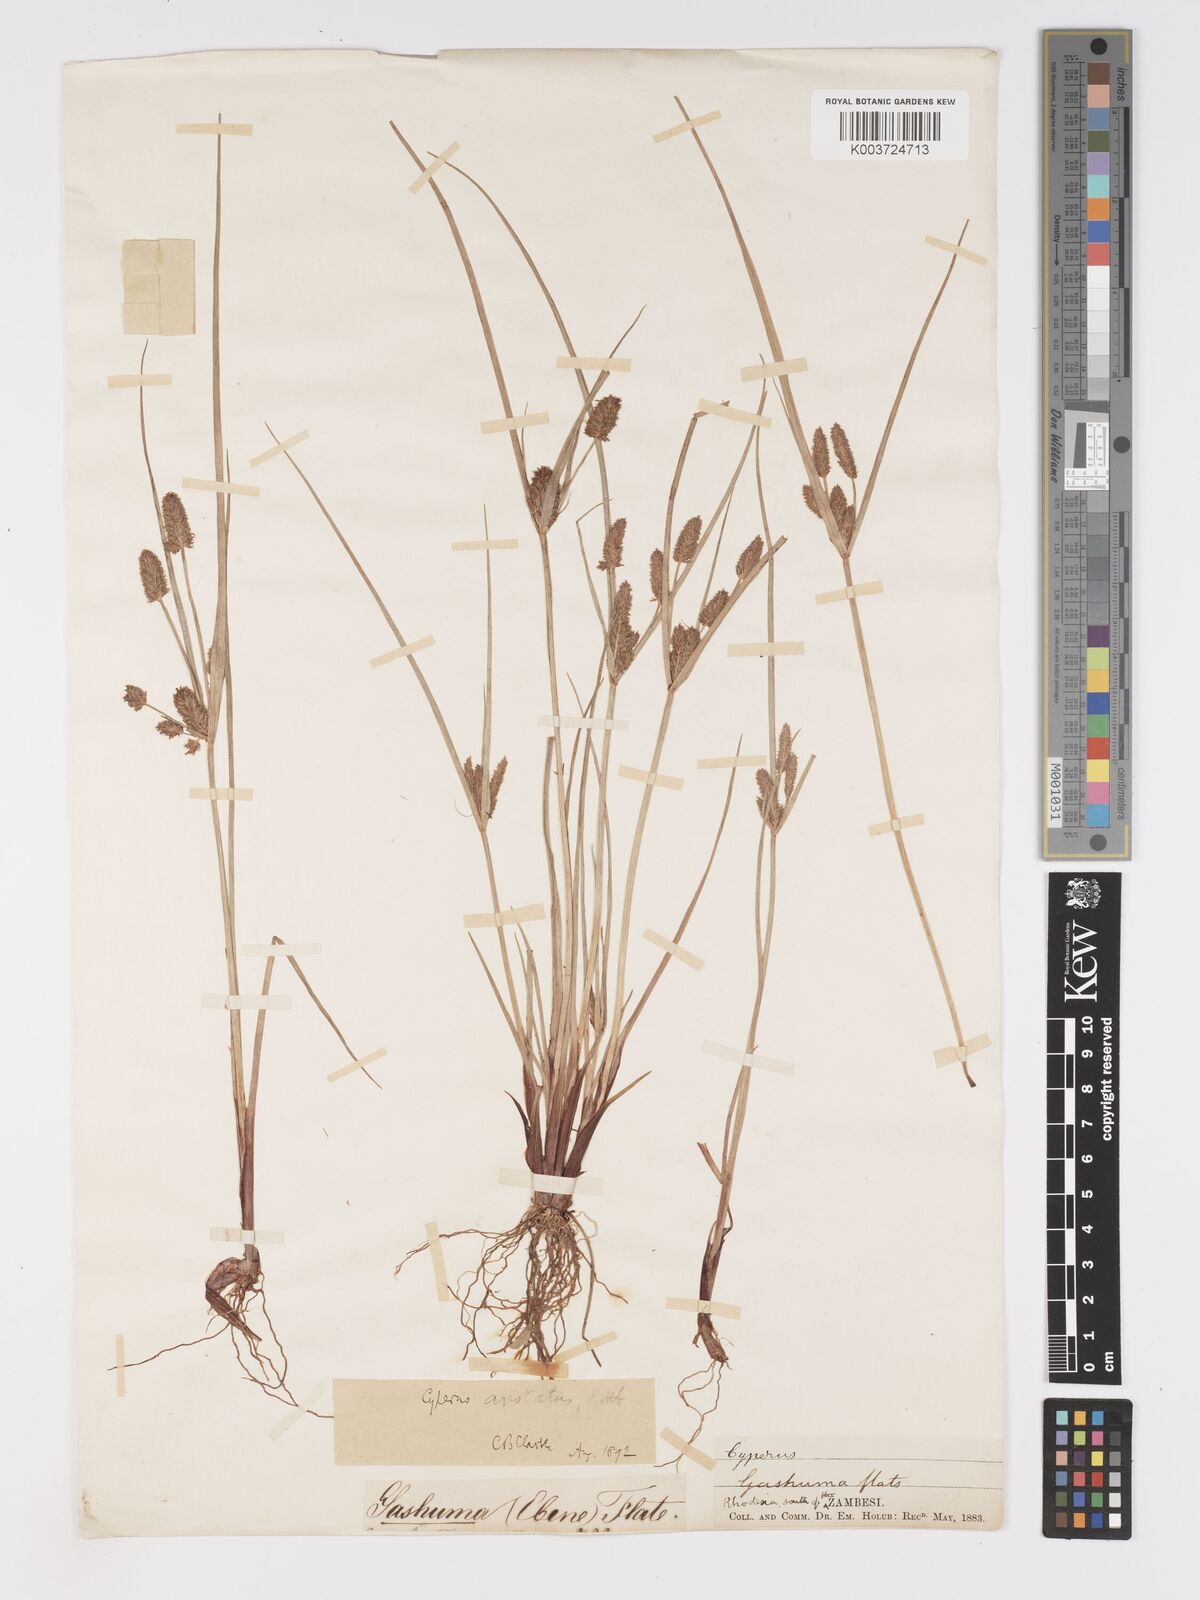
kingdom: Plantae
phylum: Tracheophyta
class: Liliopsida
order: Poales
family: Cyperaceae
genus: Cyperus
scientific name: Cyperus squarrosus
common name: Awned cyperus
